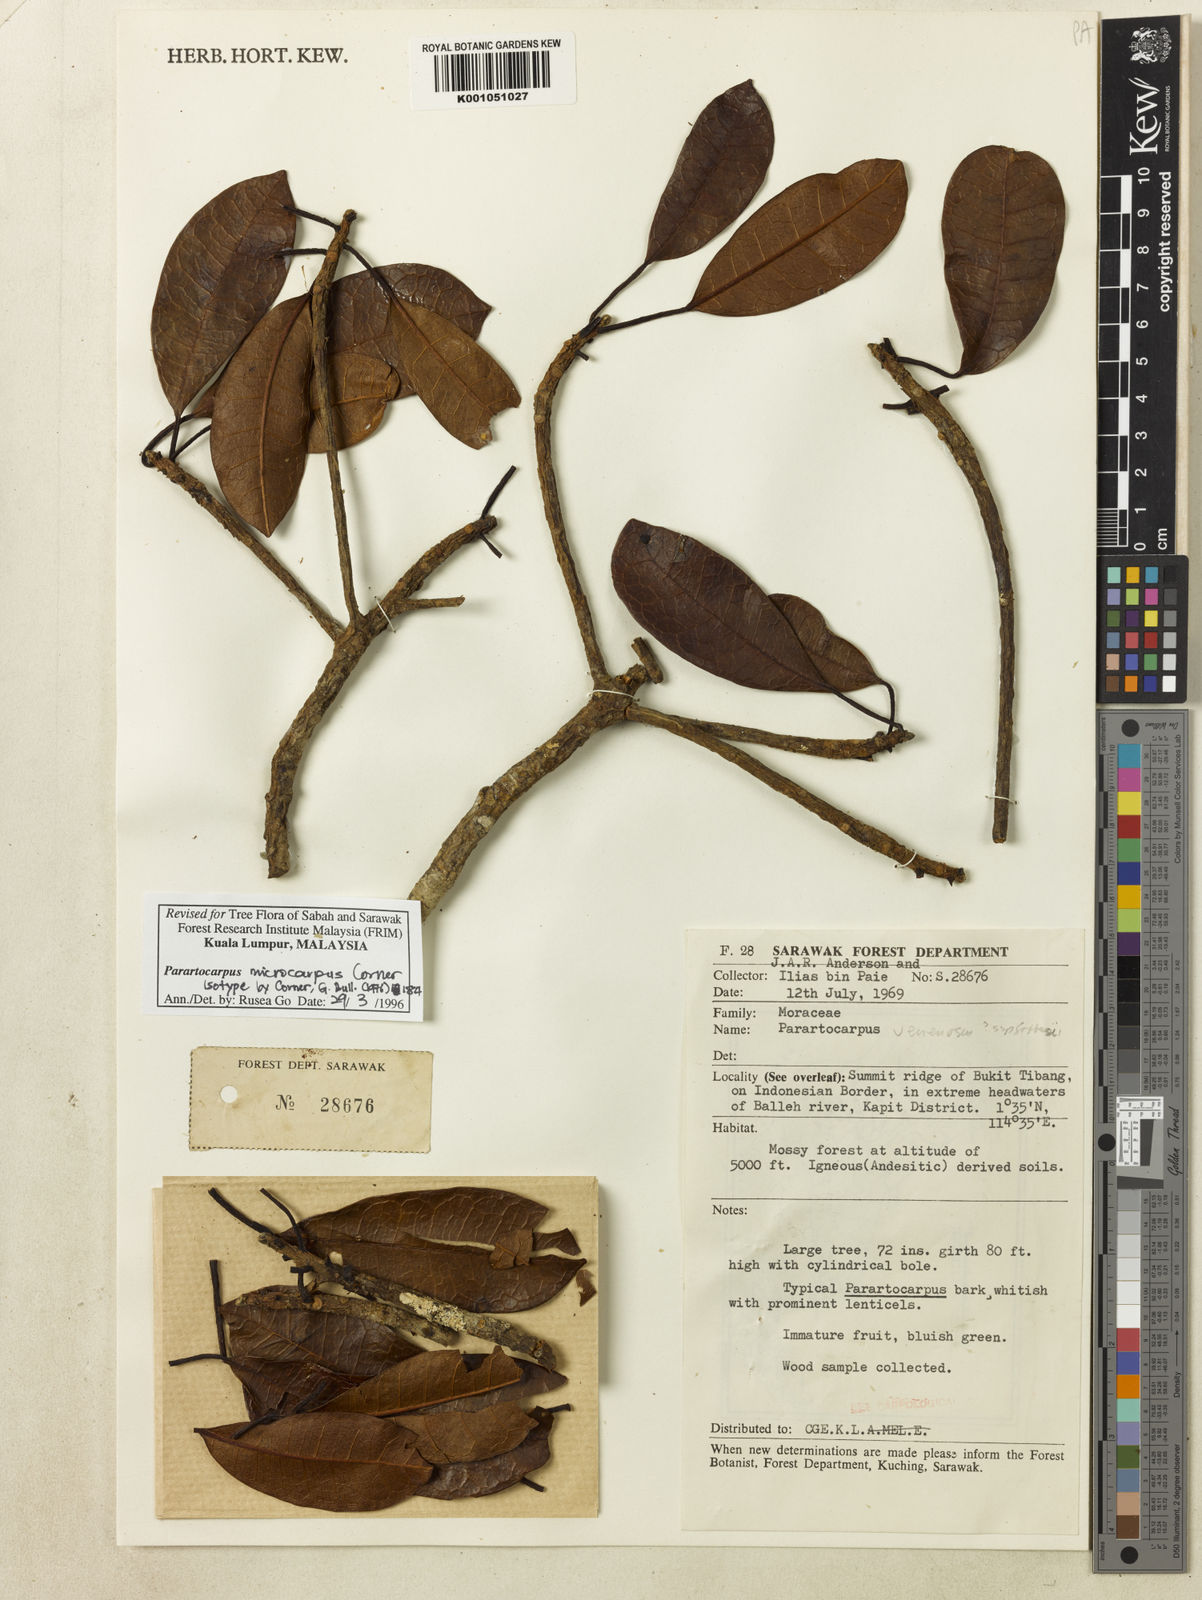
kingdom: Plantae
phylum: Tracheophyta
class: Magnoliopsida
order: Rosales
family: Moraceae
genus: Parartocarpus
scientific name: Parartocarpus venenosa
